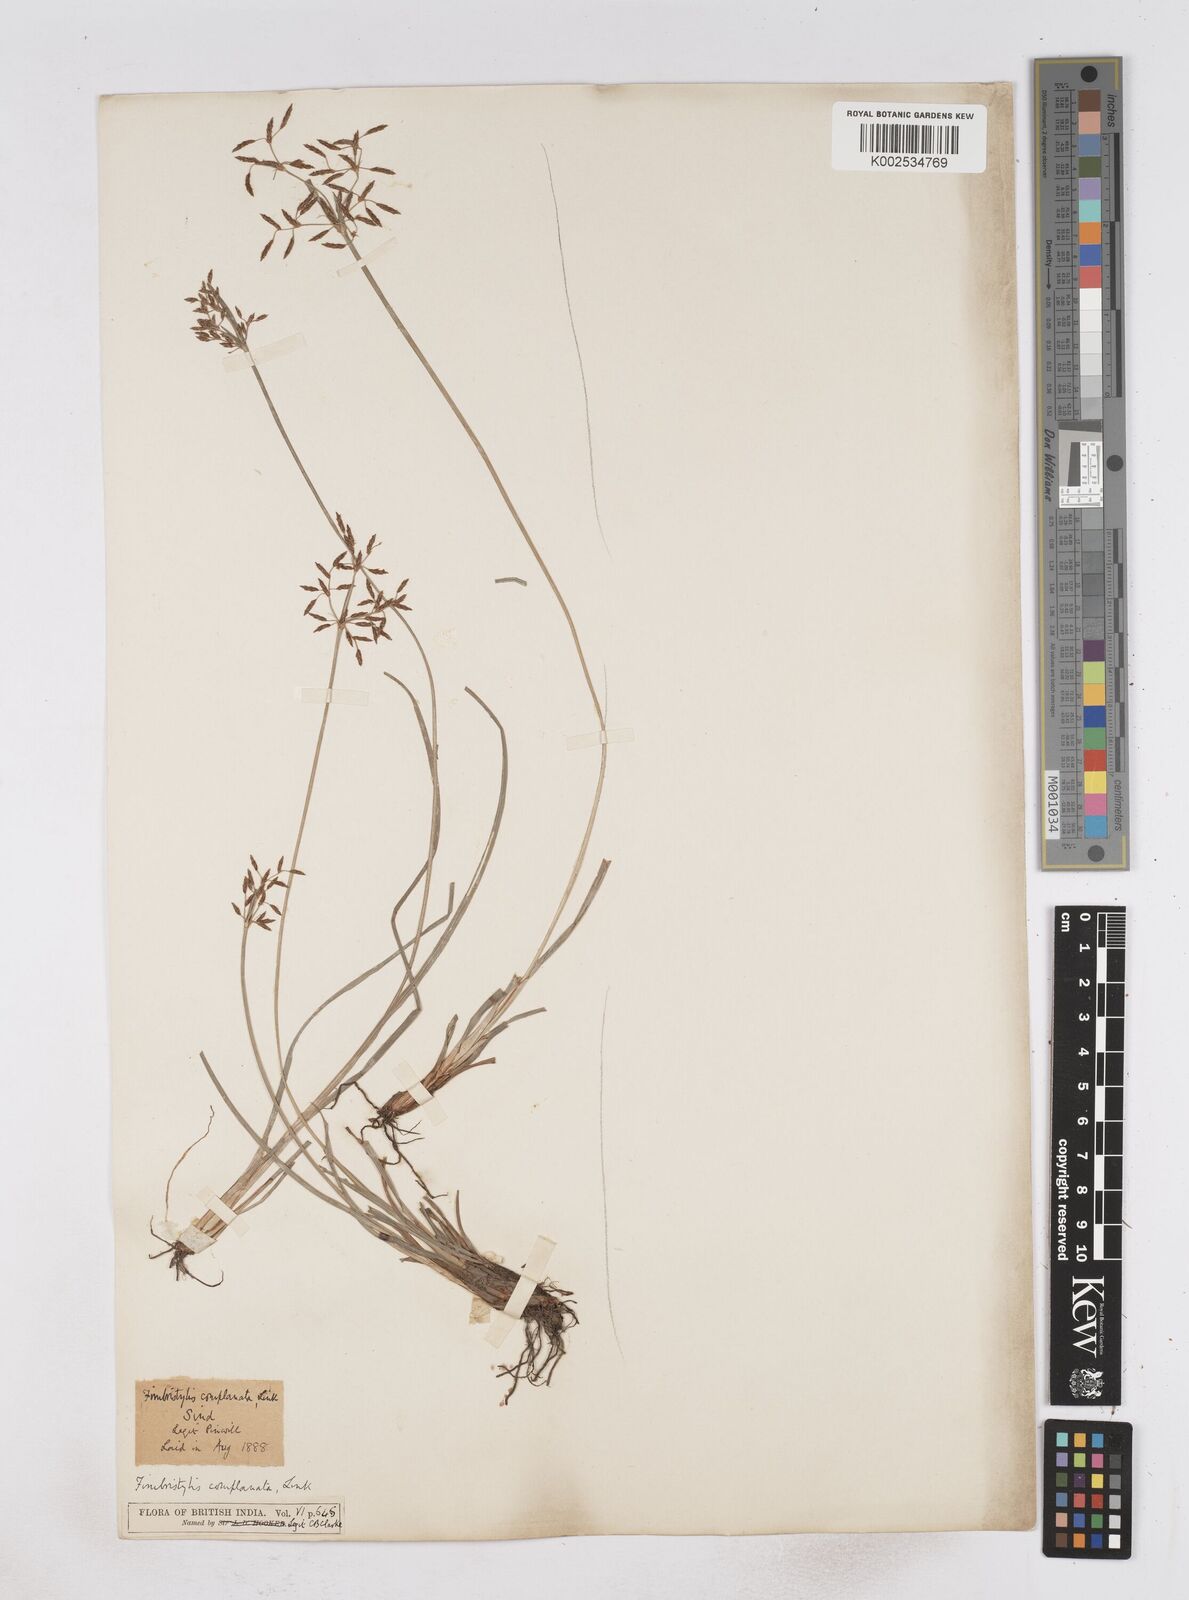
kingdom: Plantae
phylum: Tracheophyta
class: Liliopsida
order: Poales
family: Cyperaceae
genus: Fimbristylis
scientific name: Fimbristylis complanata
